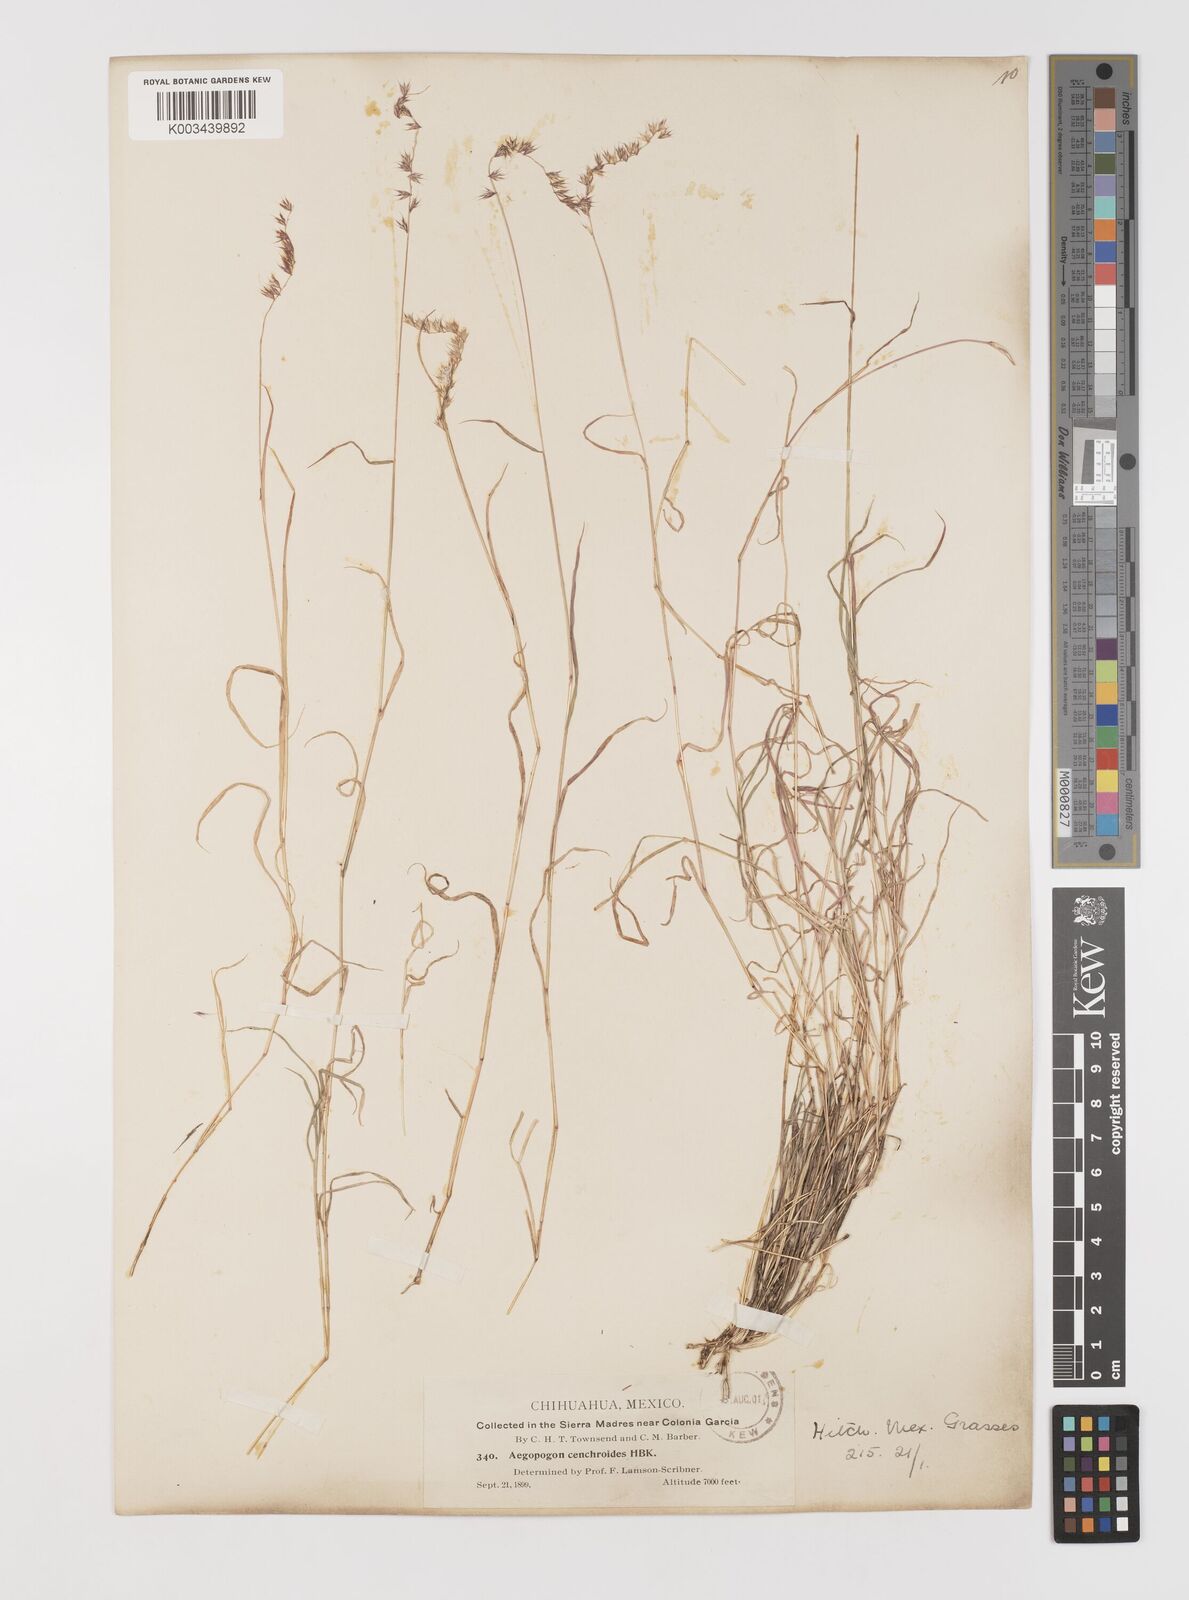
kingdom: Plantae
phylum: Tracheophyta
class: Liliopsida
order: Poales
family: Poaceae
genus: Muhlenbergia
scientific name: Muhlenbergia cenchroides
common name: Relaxgrass
